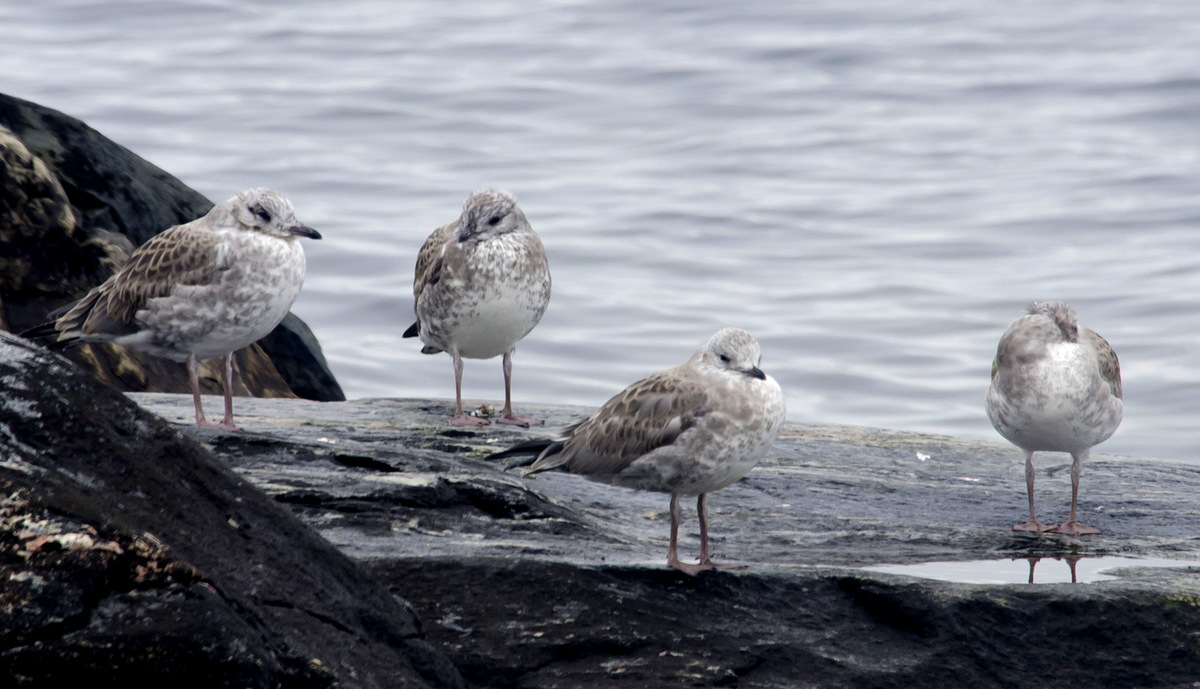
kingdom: Animalia
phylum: Chordata
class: Aves
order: Charadriiformes
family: Laridae
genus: Larus
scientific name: Larus canus
